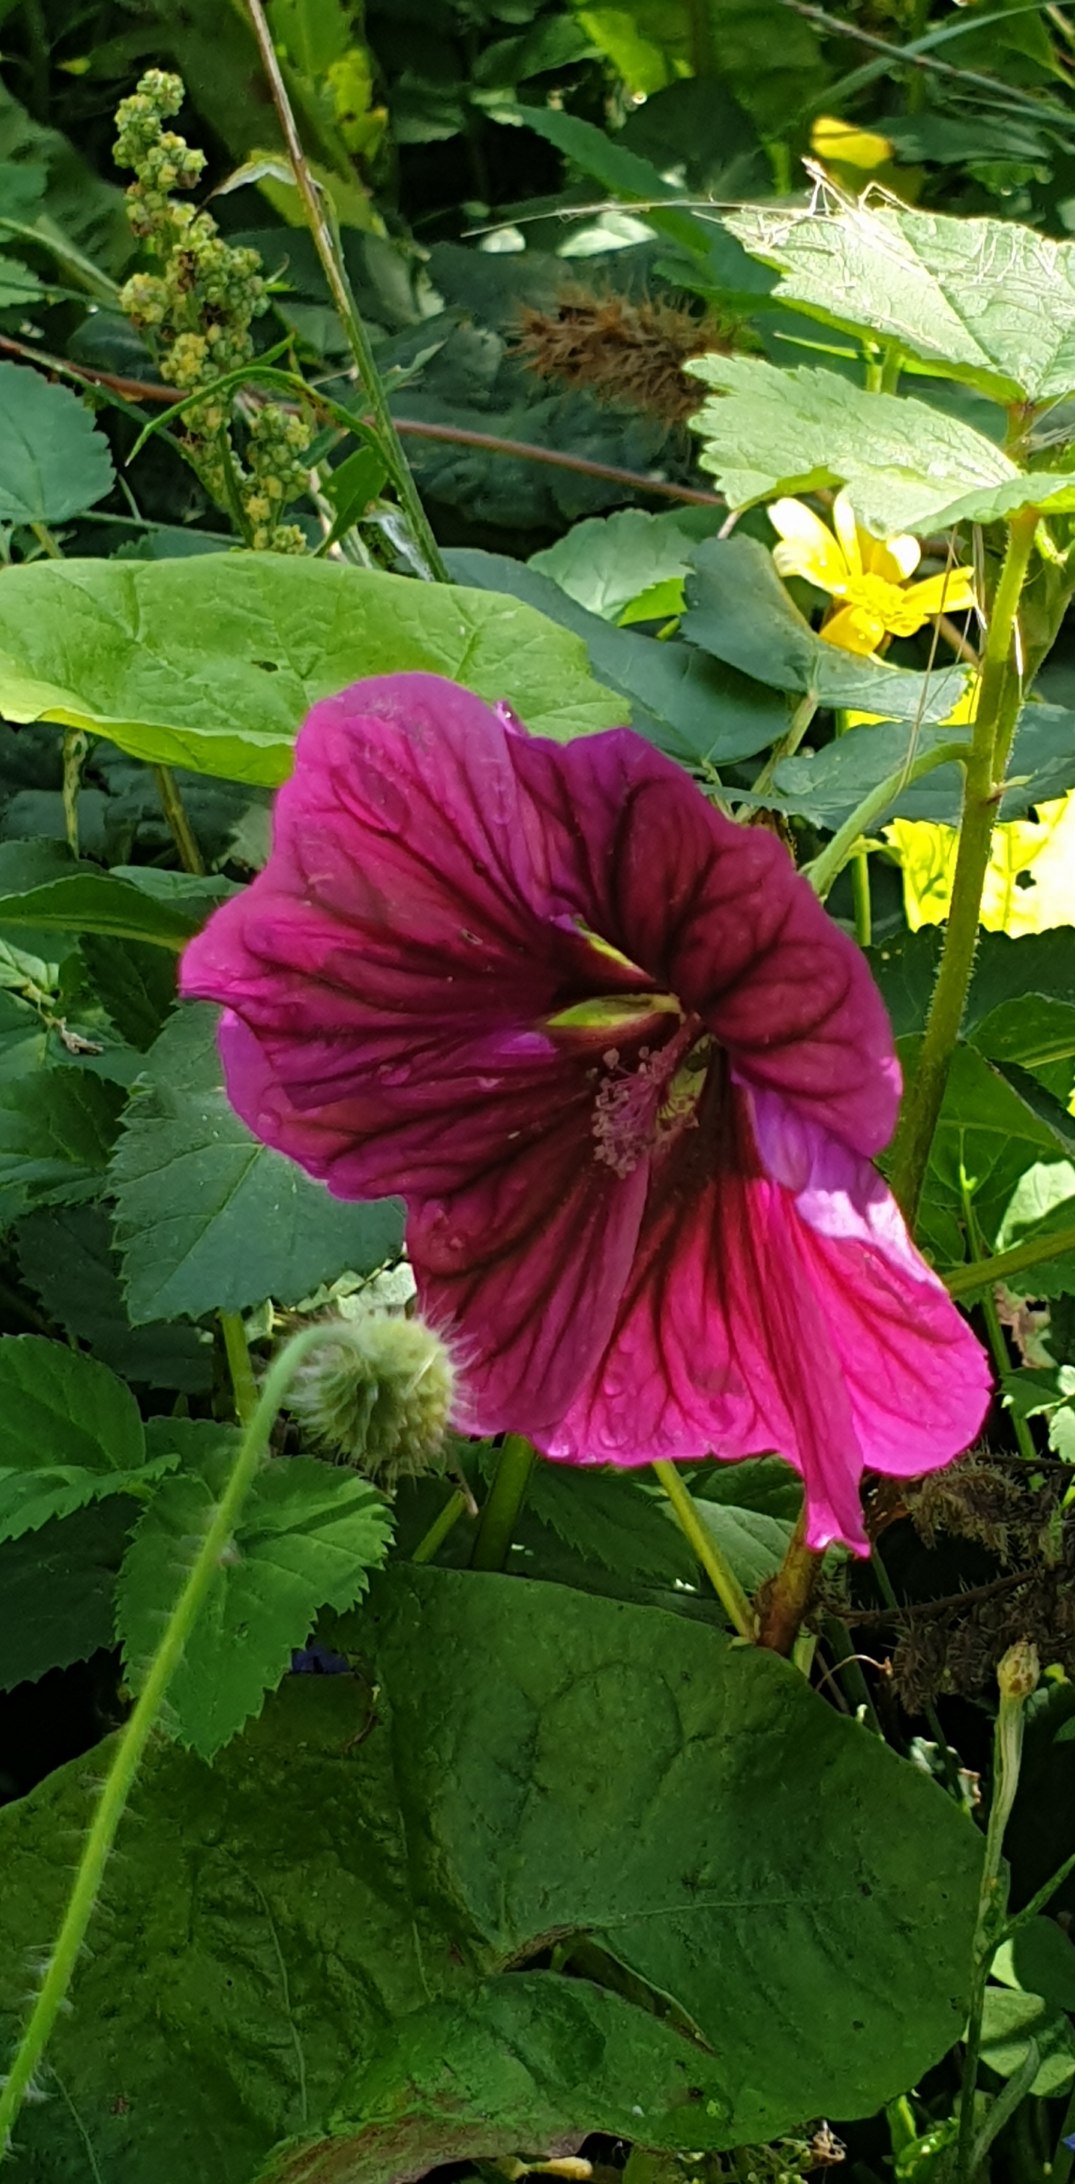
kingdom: Plantae
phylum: Tracheophyta
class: Magnoliopsida
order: Malvales
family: Malvaceae
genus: Malva
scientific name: Malva sylvestris
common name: Stor katost
